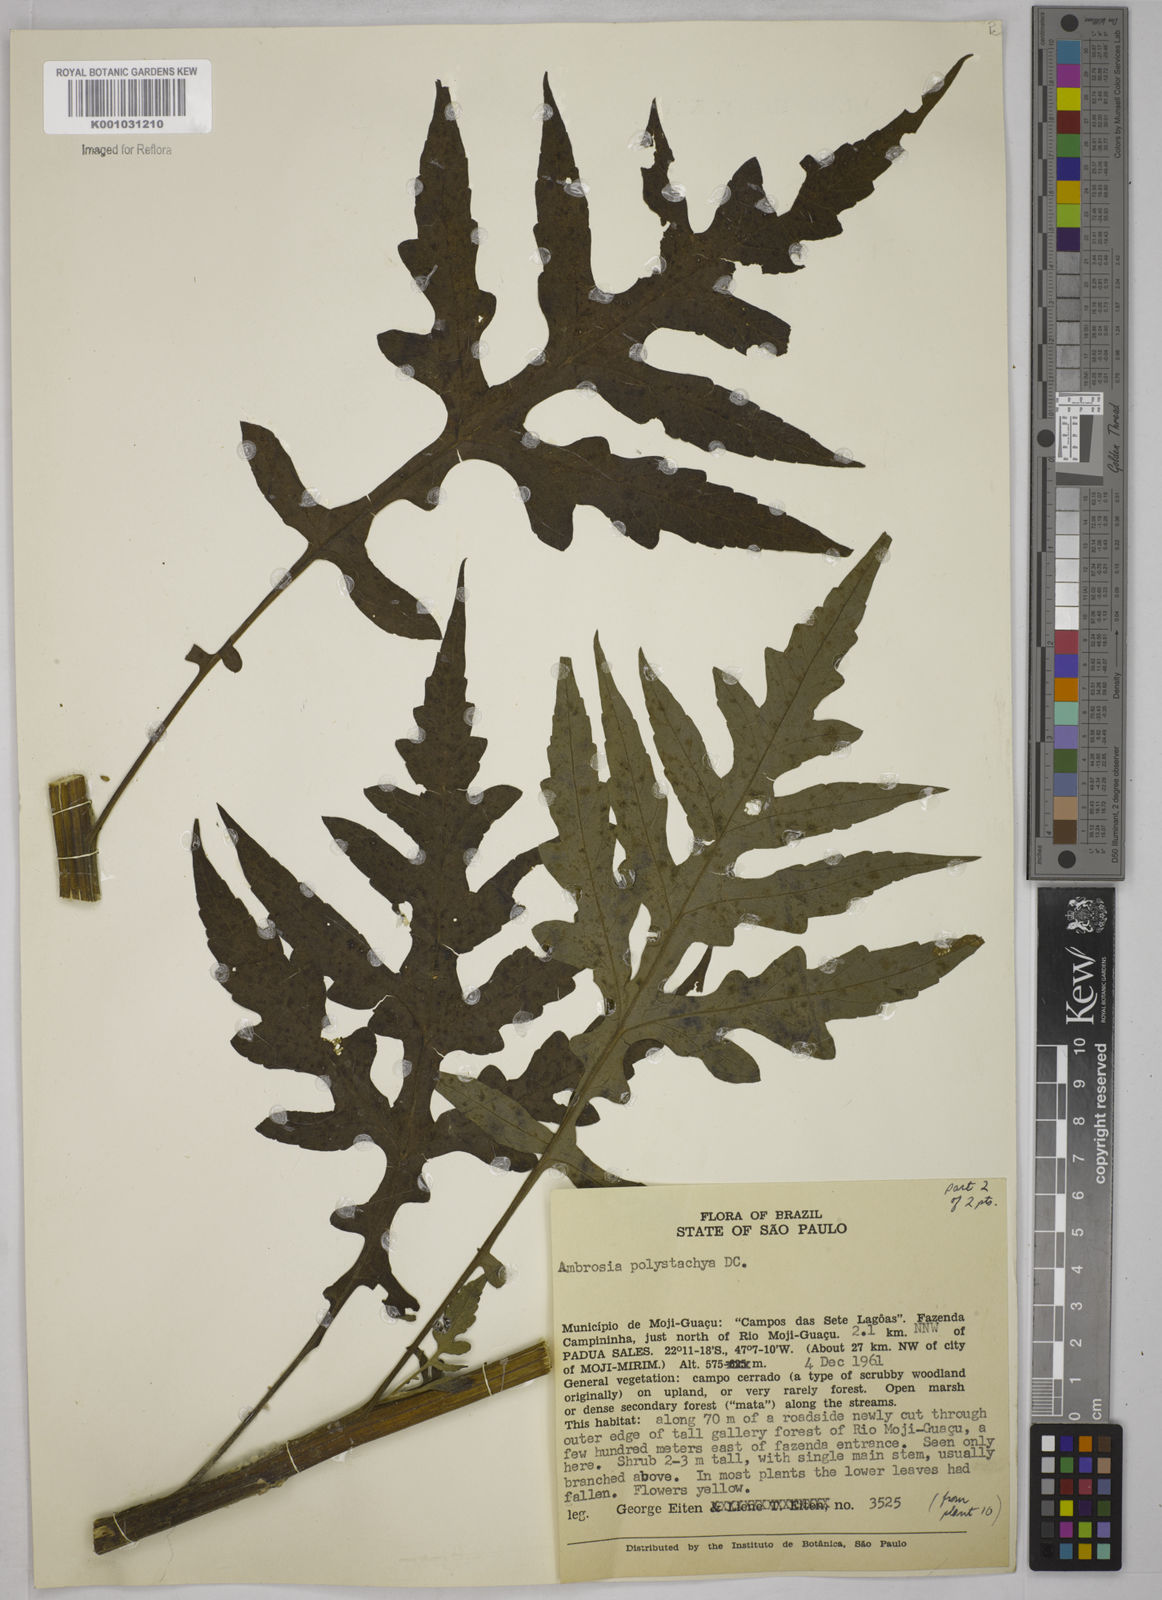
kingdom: Plantae
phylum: Tracheophyta
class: Magnoliopsida
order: Asterales
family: Asteraceae
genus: Ambrosia
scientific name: Ambrosia polystachya
